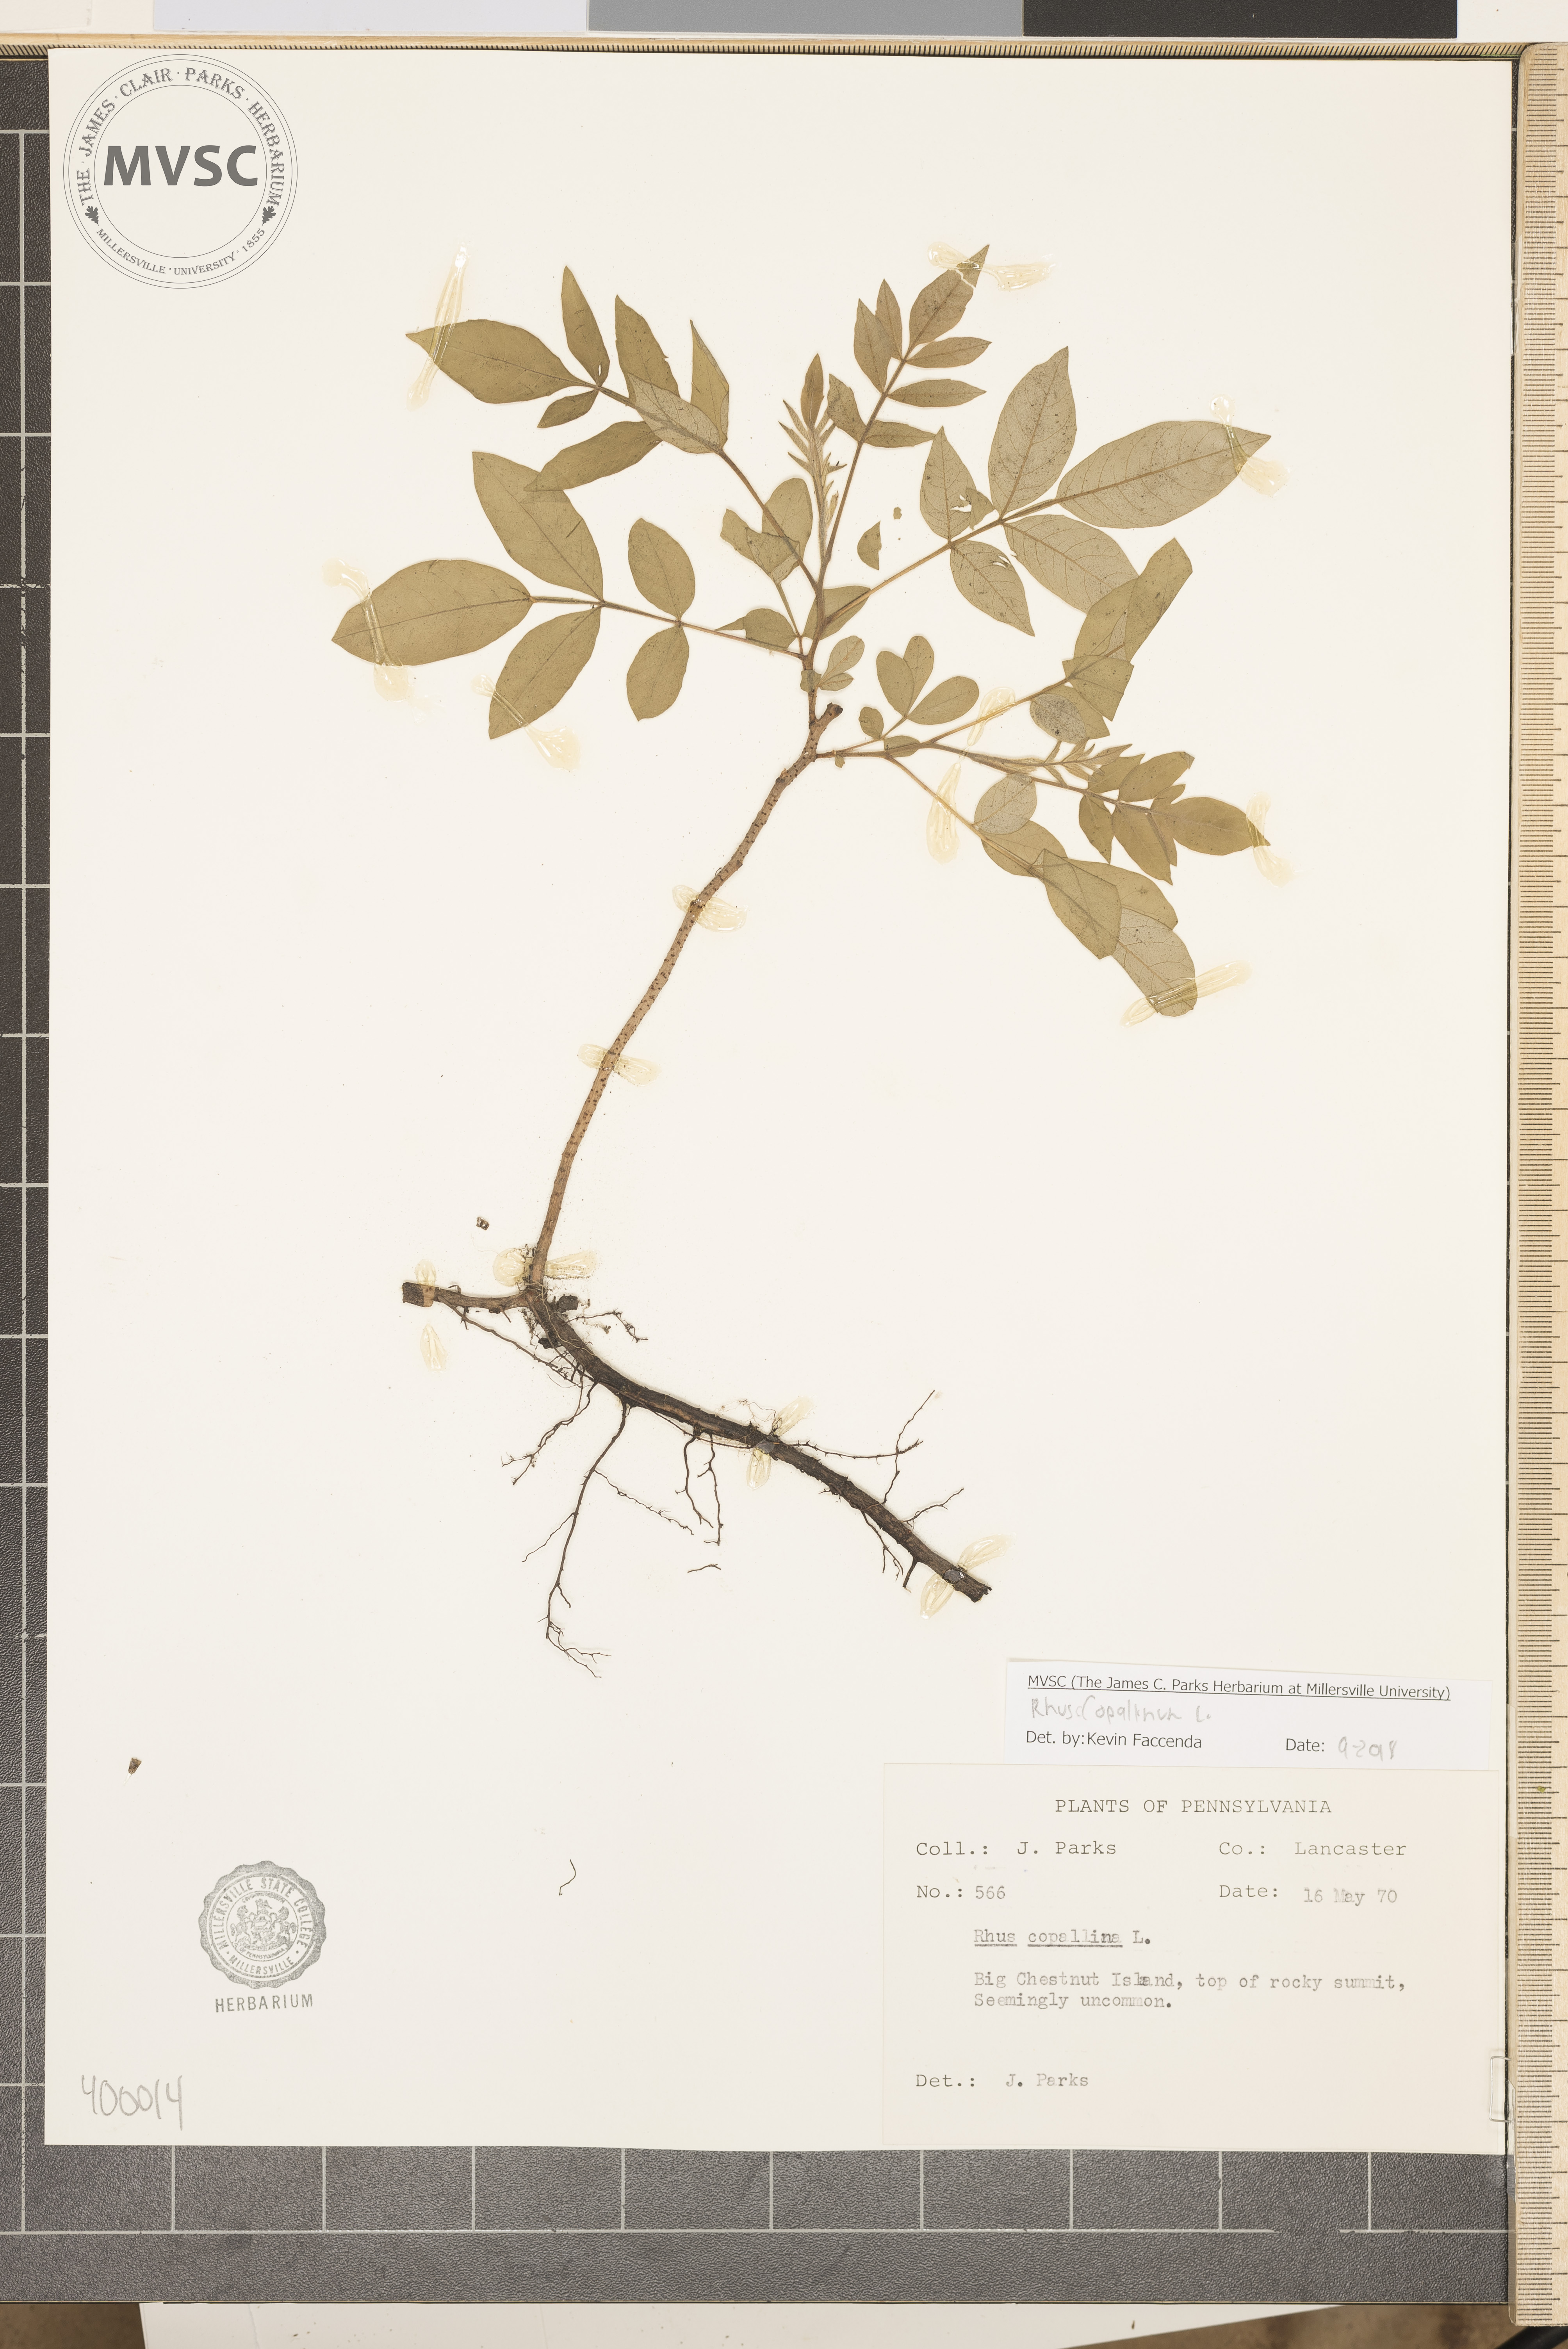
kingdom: Plantae
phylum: Tracheophyta
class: Magnoliopsida
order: Sapindales
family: Anacardiaceae
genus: Rhus
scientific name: Rhus copallina
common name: sumac
